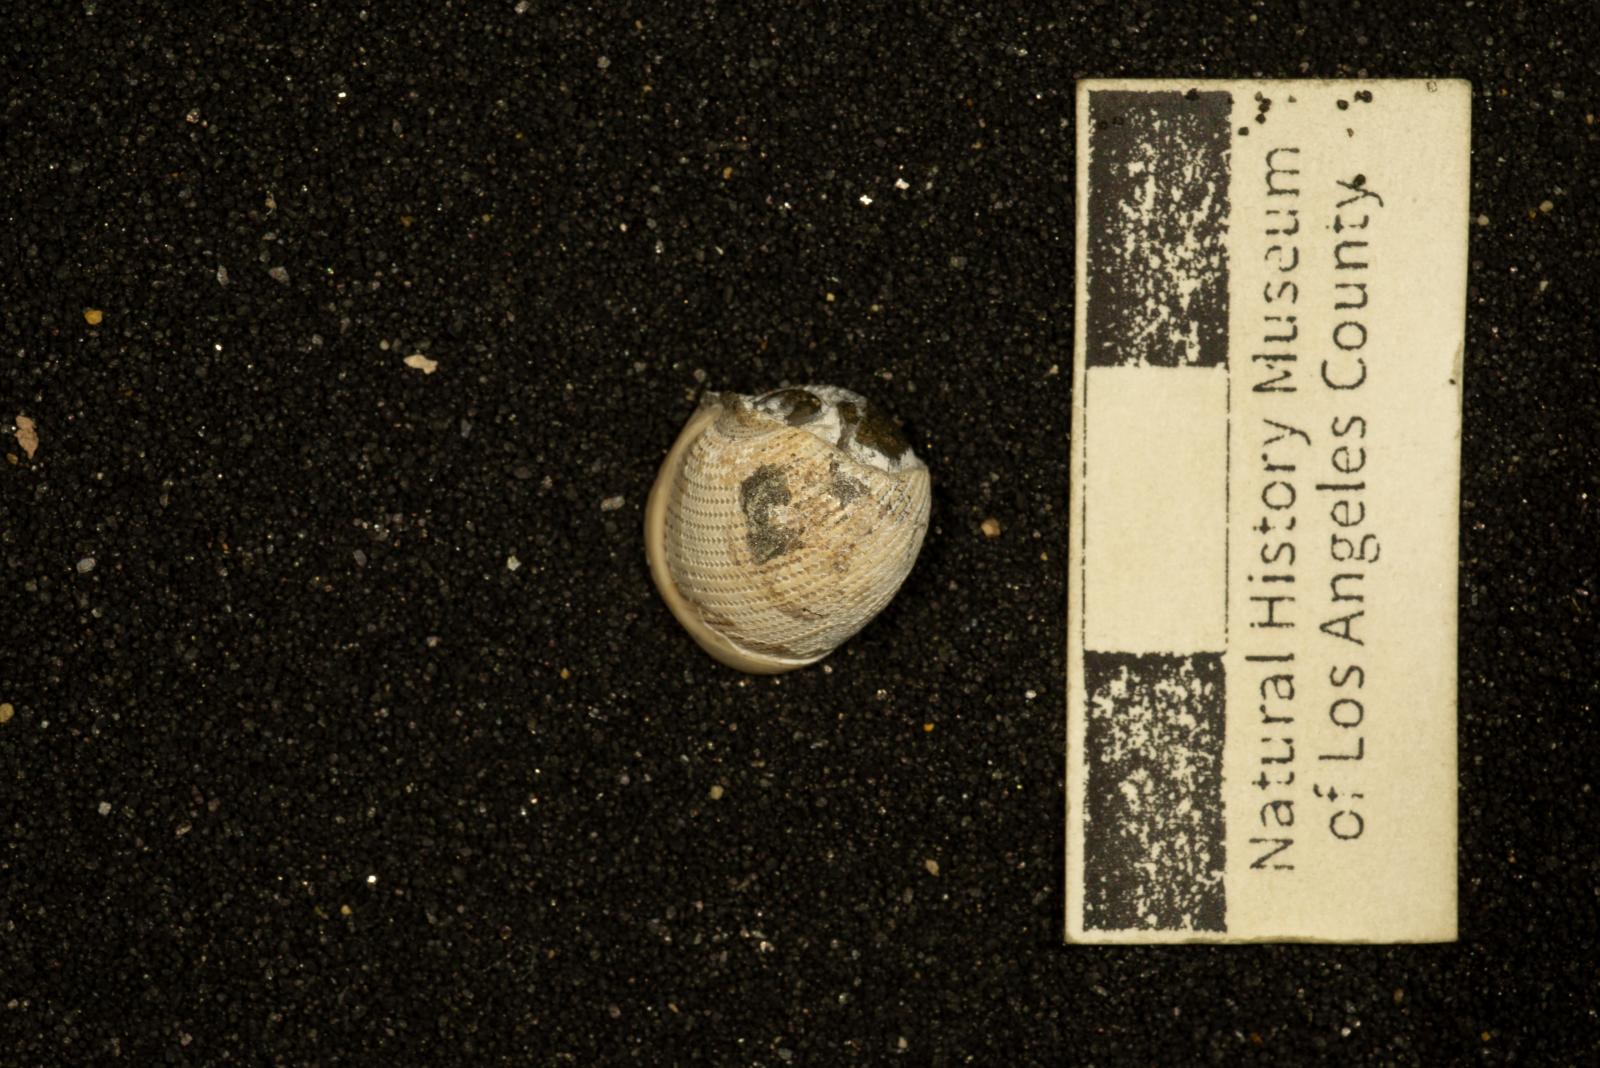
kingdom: Animalia
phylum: Mollusca
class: Gastropoda
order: Cephalaspidea
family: Ringiculidae
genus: Biplica
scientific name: Biplica obliqua
